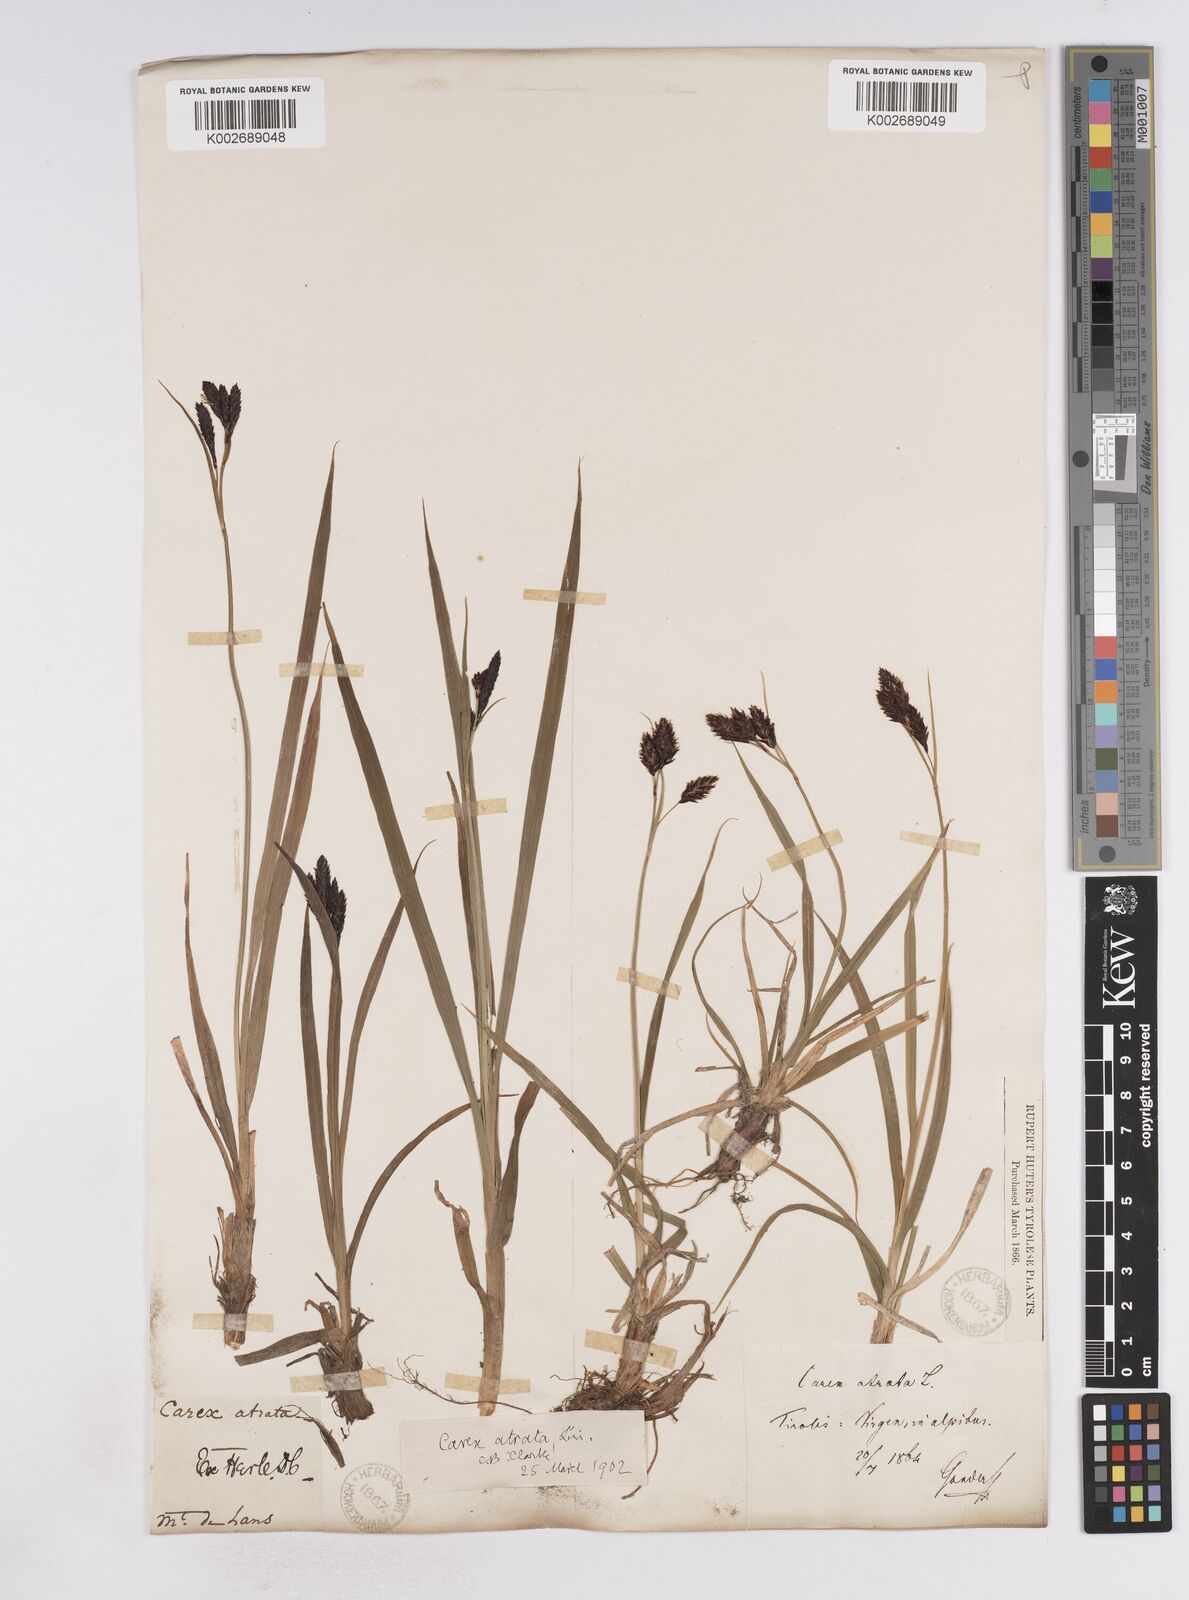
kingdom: Plantae
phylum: Tracheophyta
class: Liliopsida
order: Poales
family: Cyperaceae
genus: Carex
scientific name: Carex atrata
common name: Black alpine sedge
